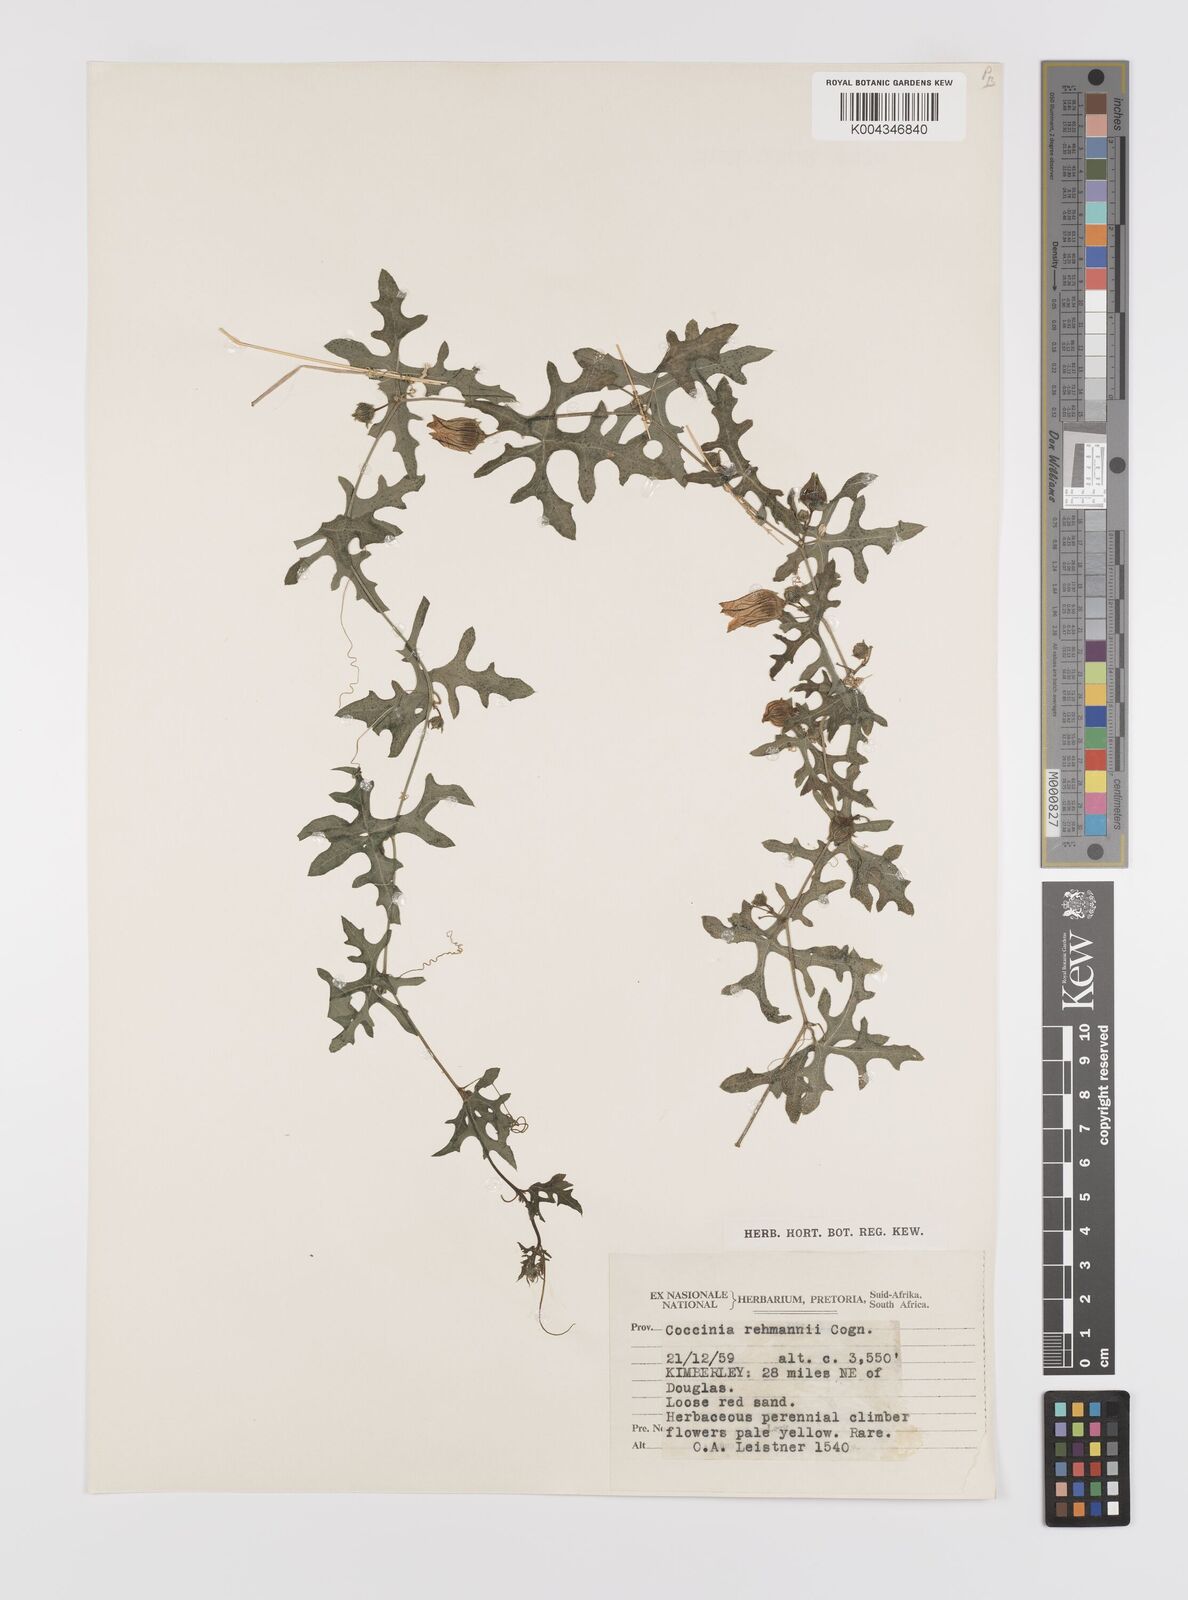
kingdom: Plantae
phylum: Tracheophyta
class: Magnoliopsida
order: Cucurbitales
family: Cucurbitaceae
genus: Coccinia
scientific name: Coccinia rehmannii
